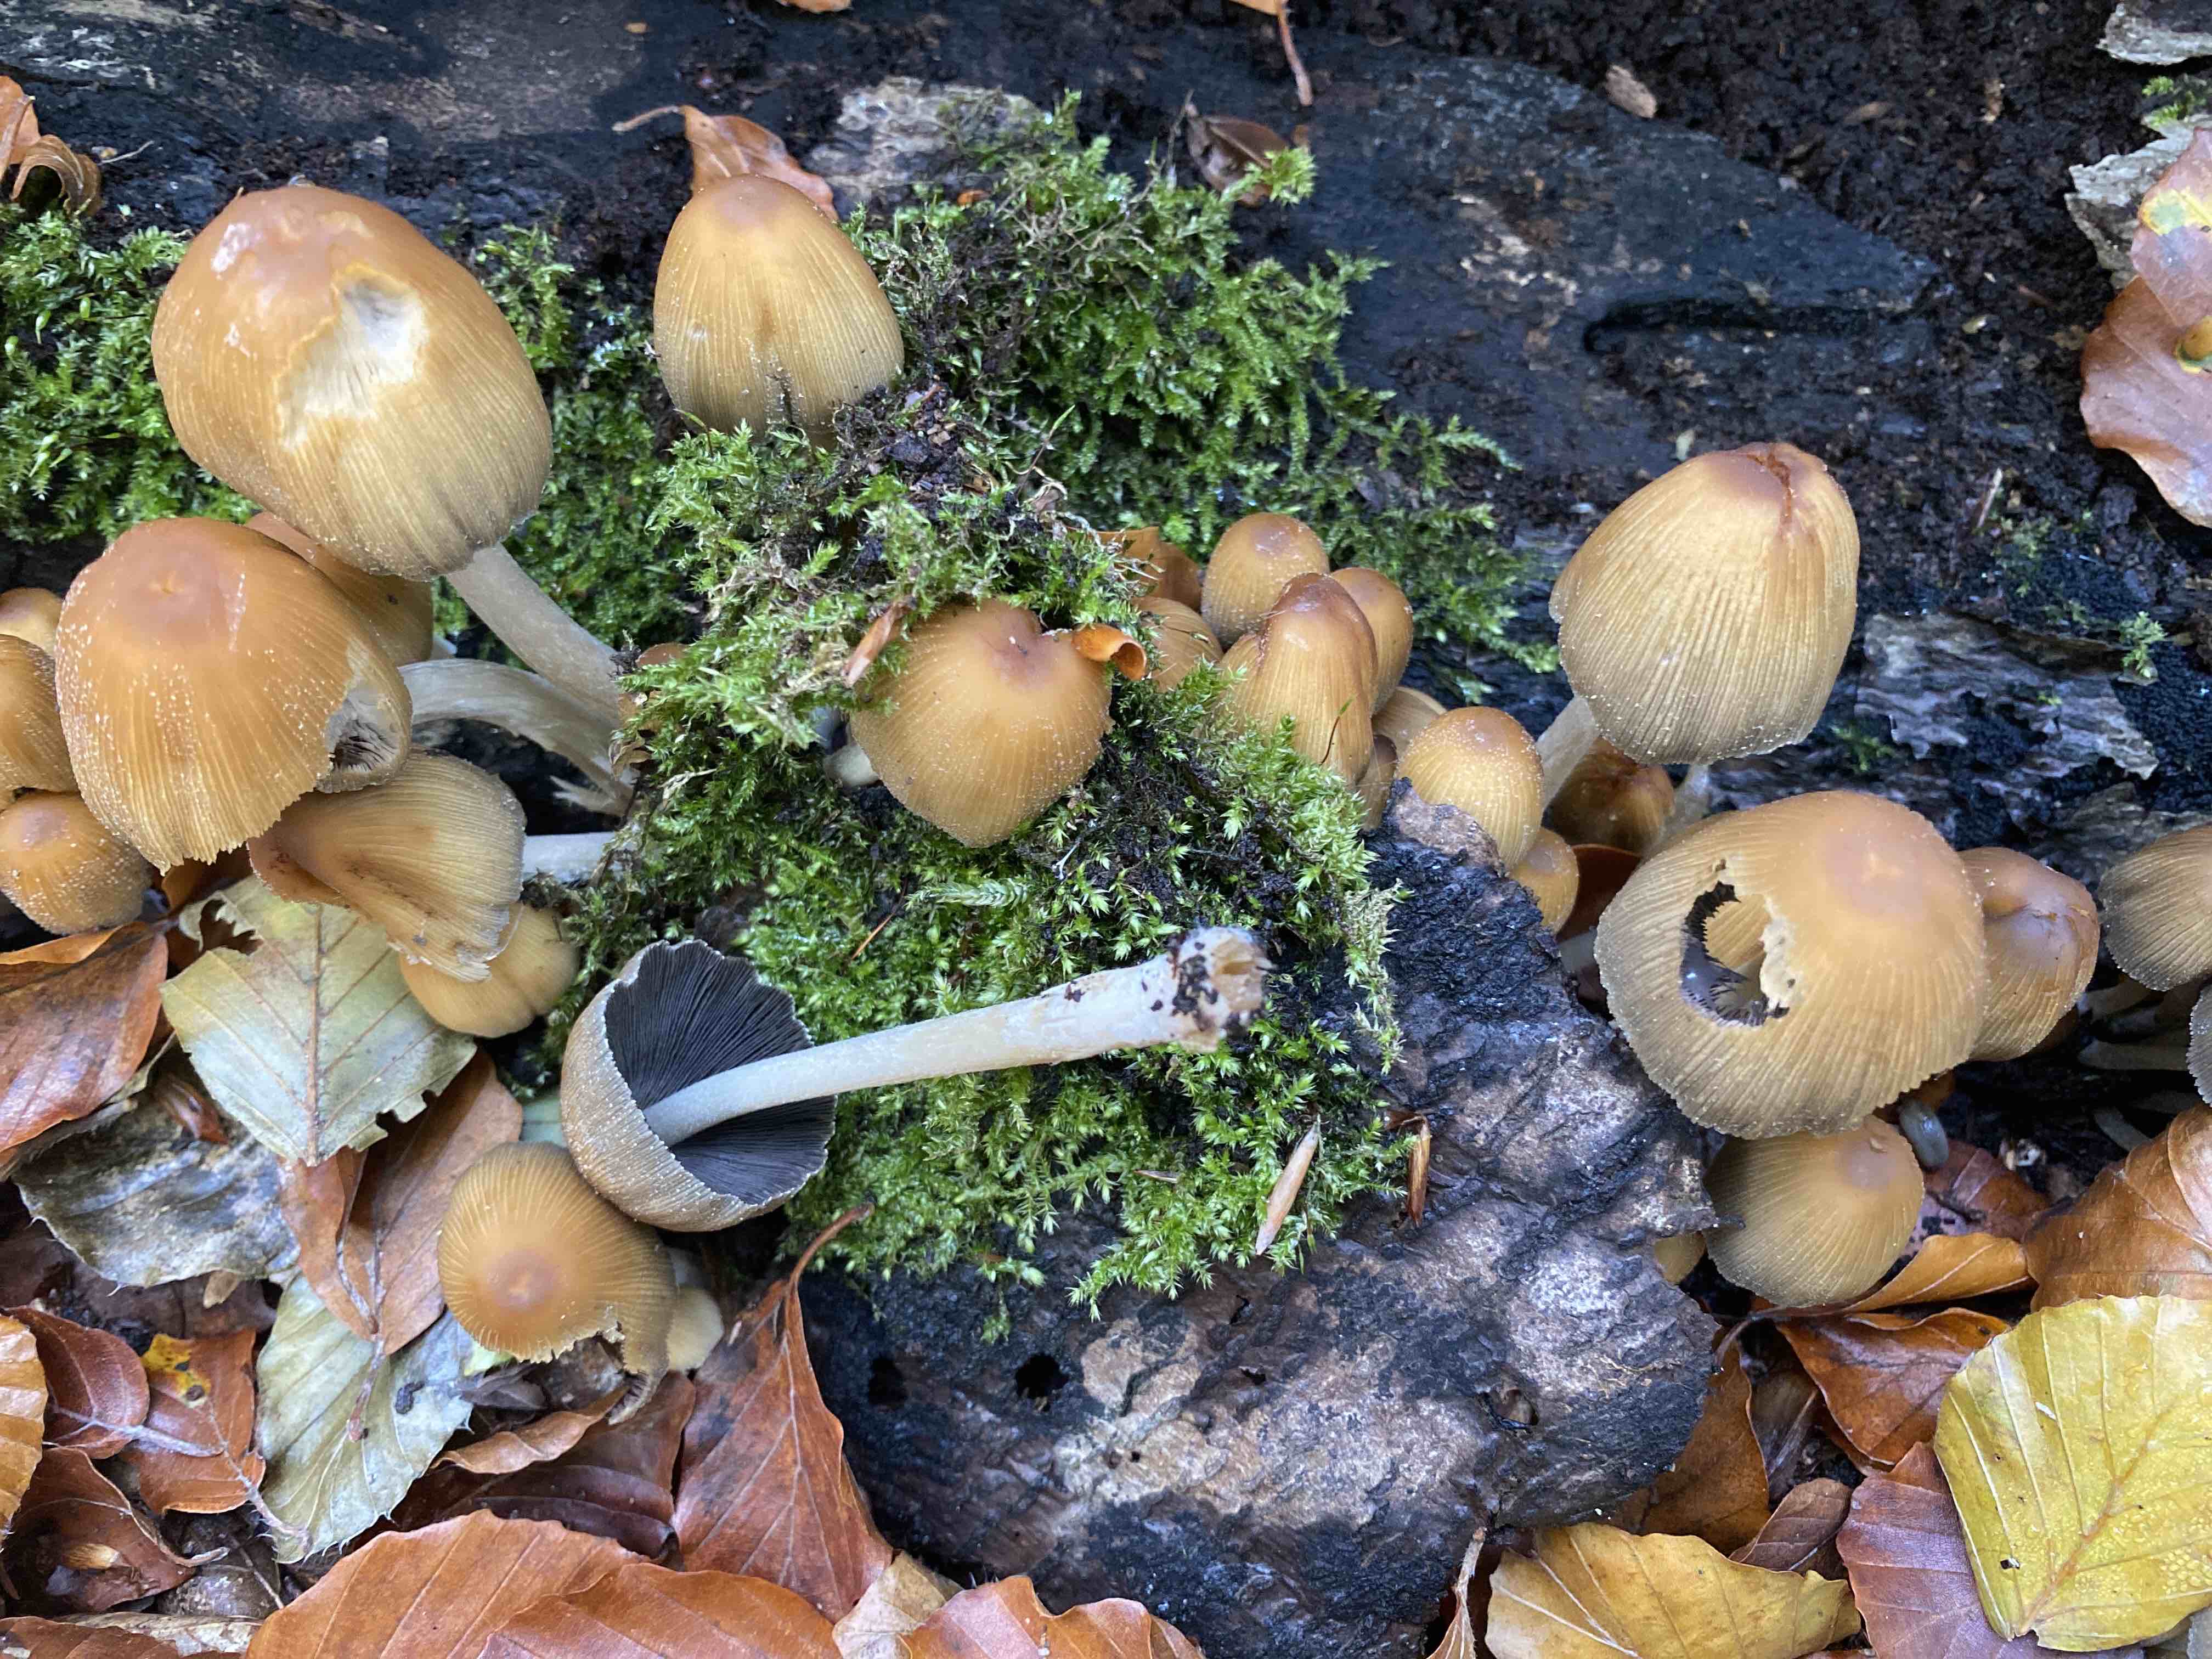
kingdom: Fungi
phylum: Basidiomycota
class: Agaricomycetes
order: Agaricales
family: Psathyrellaceae
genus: Coprinellus
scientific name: Coprinellus micaceus
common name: glimmer-blækhat
